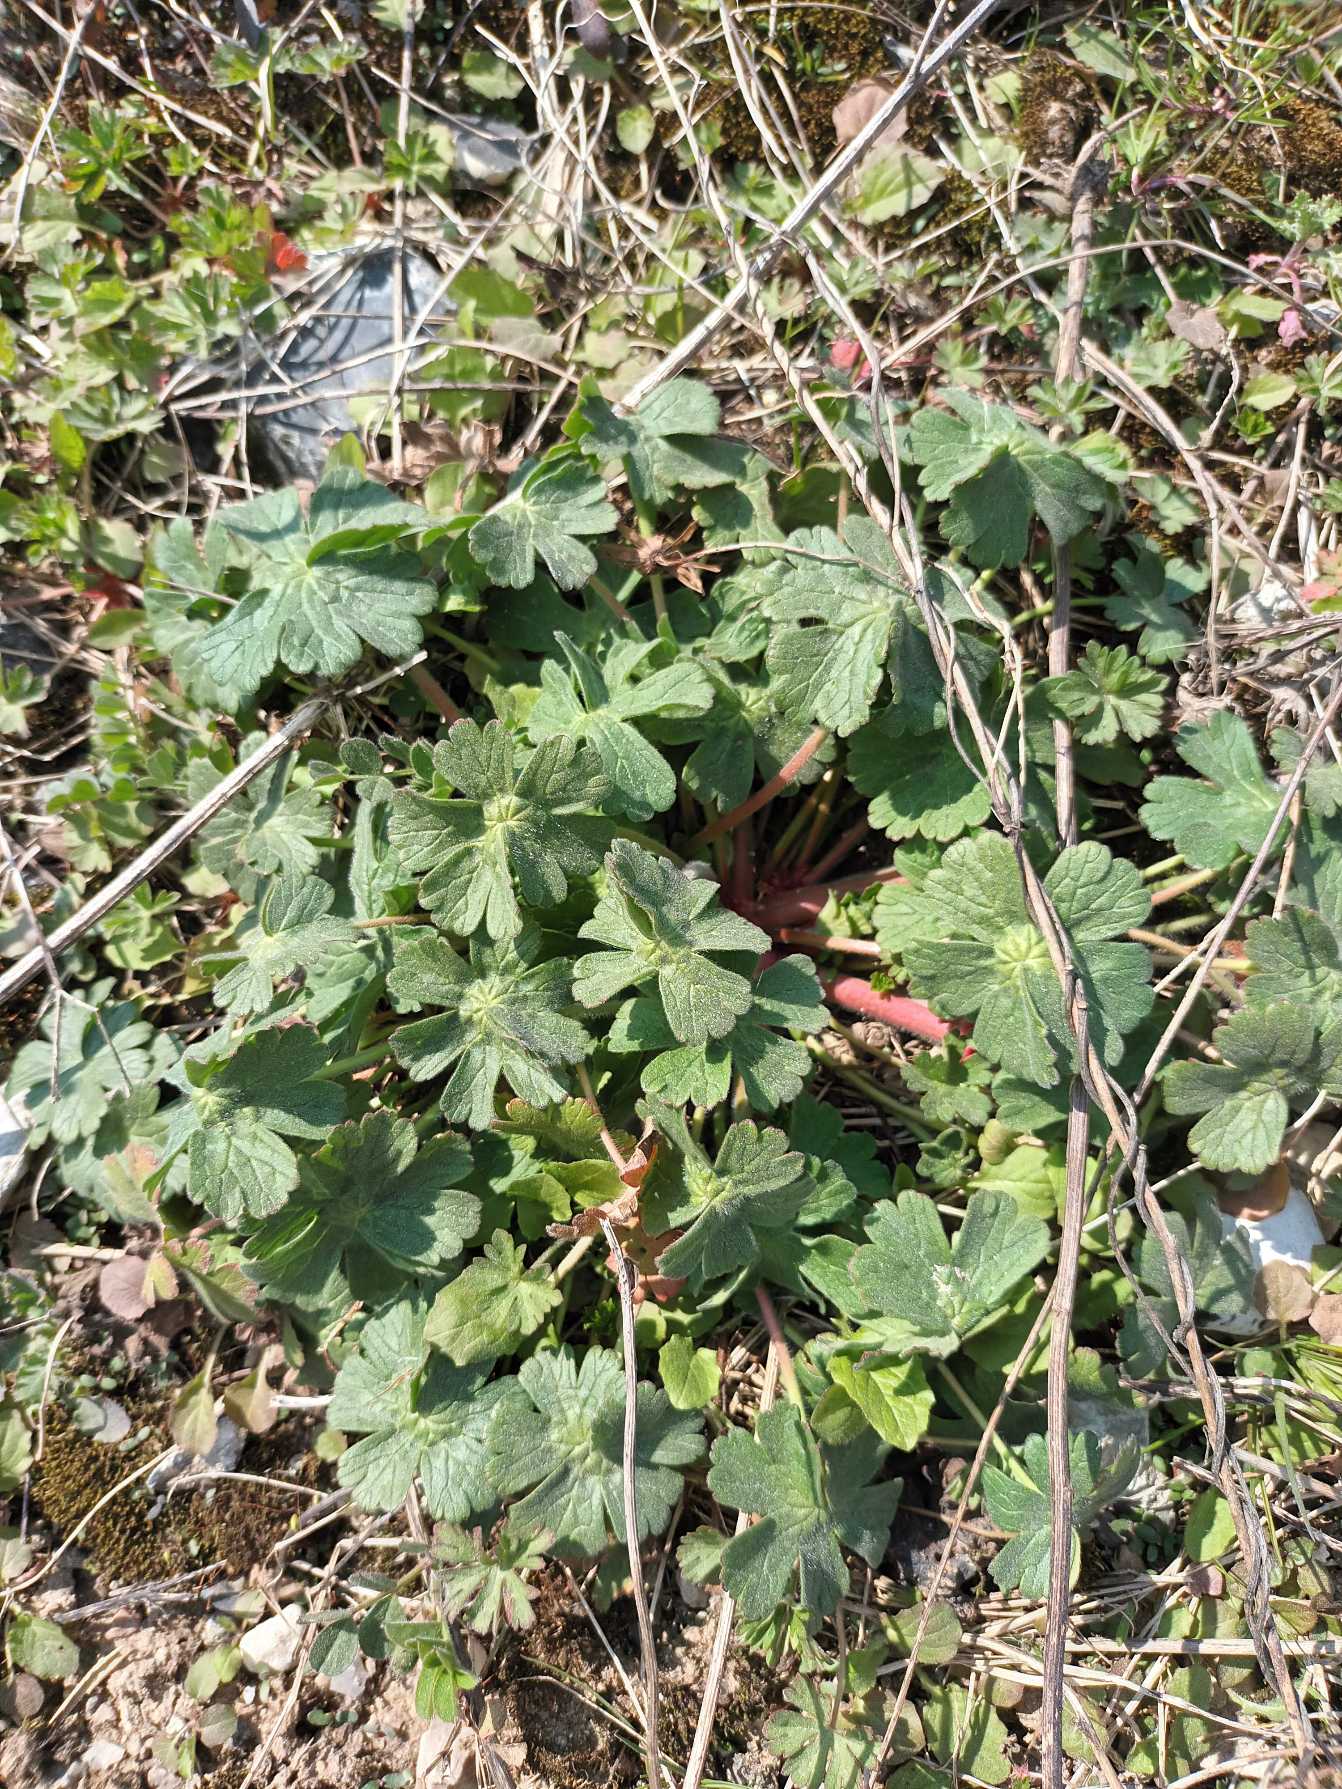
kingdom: Plantae
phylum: Tracheophyta
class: Magnoliopsida
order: Geraniales
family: Geraniaceae
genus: Geranium
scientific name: Geranium pyrenaicum
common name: Pyrenæisk storkenæb
